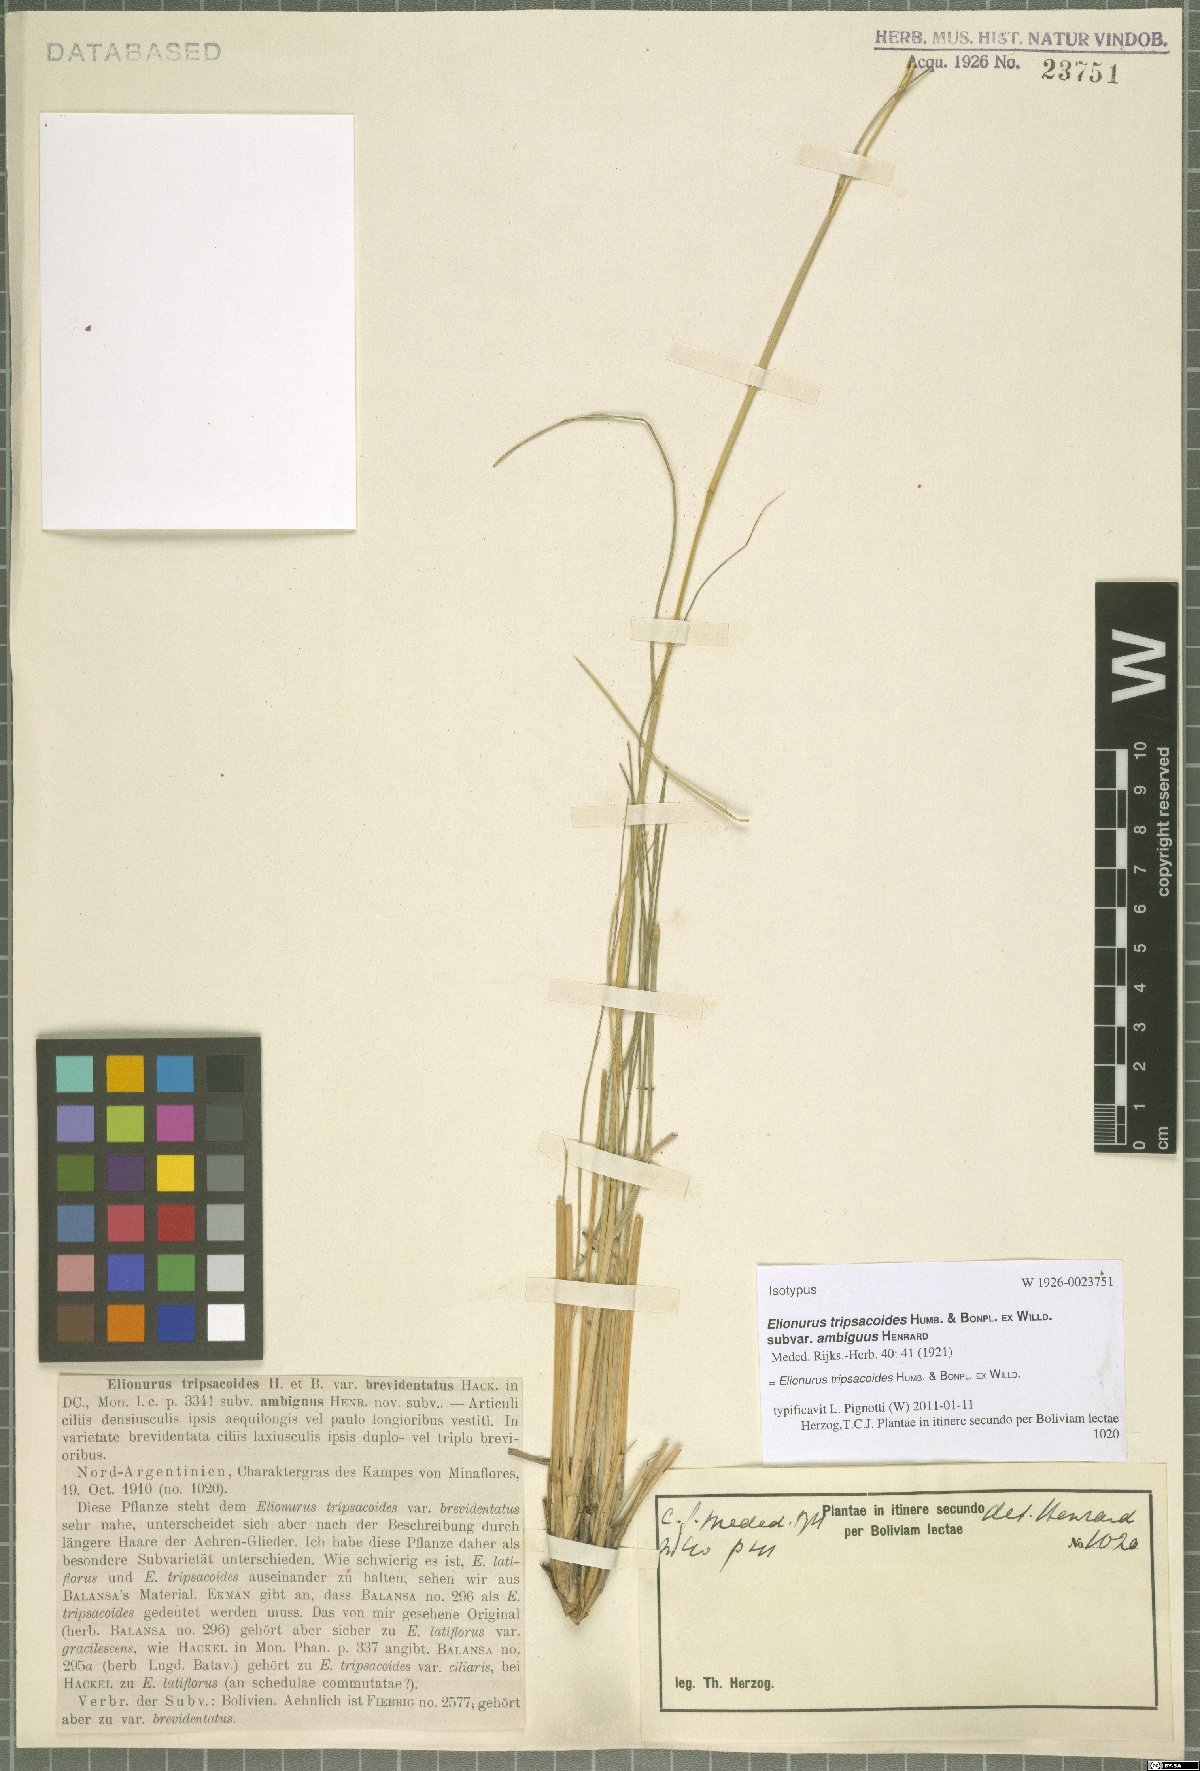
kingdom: Plantae
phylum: Tracheophyta
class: Liliopsida
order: Poales
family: Poaceae
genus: Elionurus
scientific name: Elionurus tripsacoides
